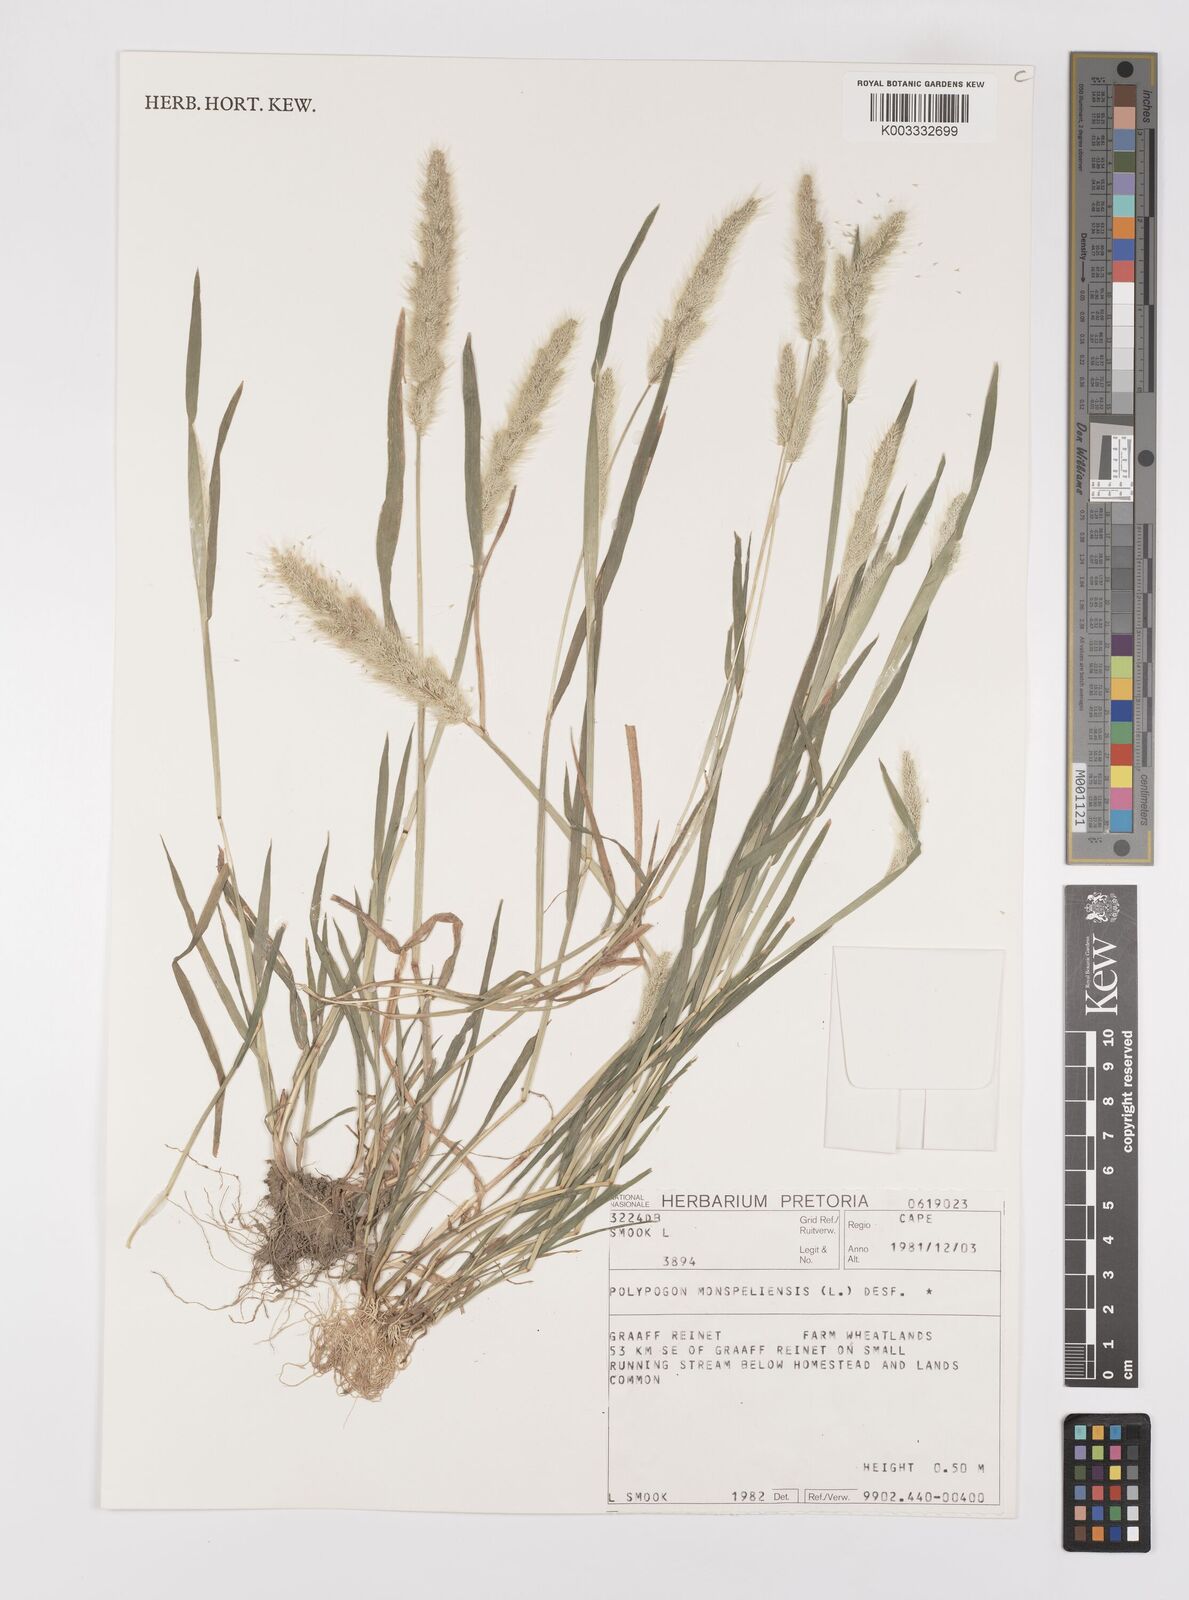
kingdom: Plantae
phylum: Tracheophyta
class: Liliopsida
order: Poales
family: Poaceae
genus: Polypogon
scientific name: Polypogon monspeliensis
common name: Annual rabbitsfoot grass
